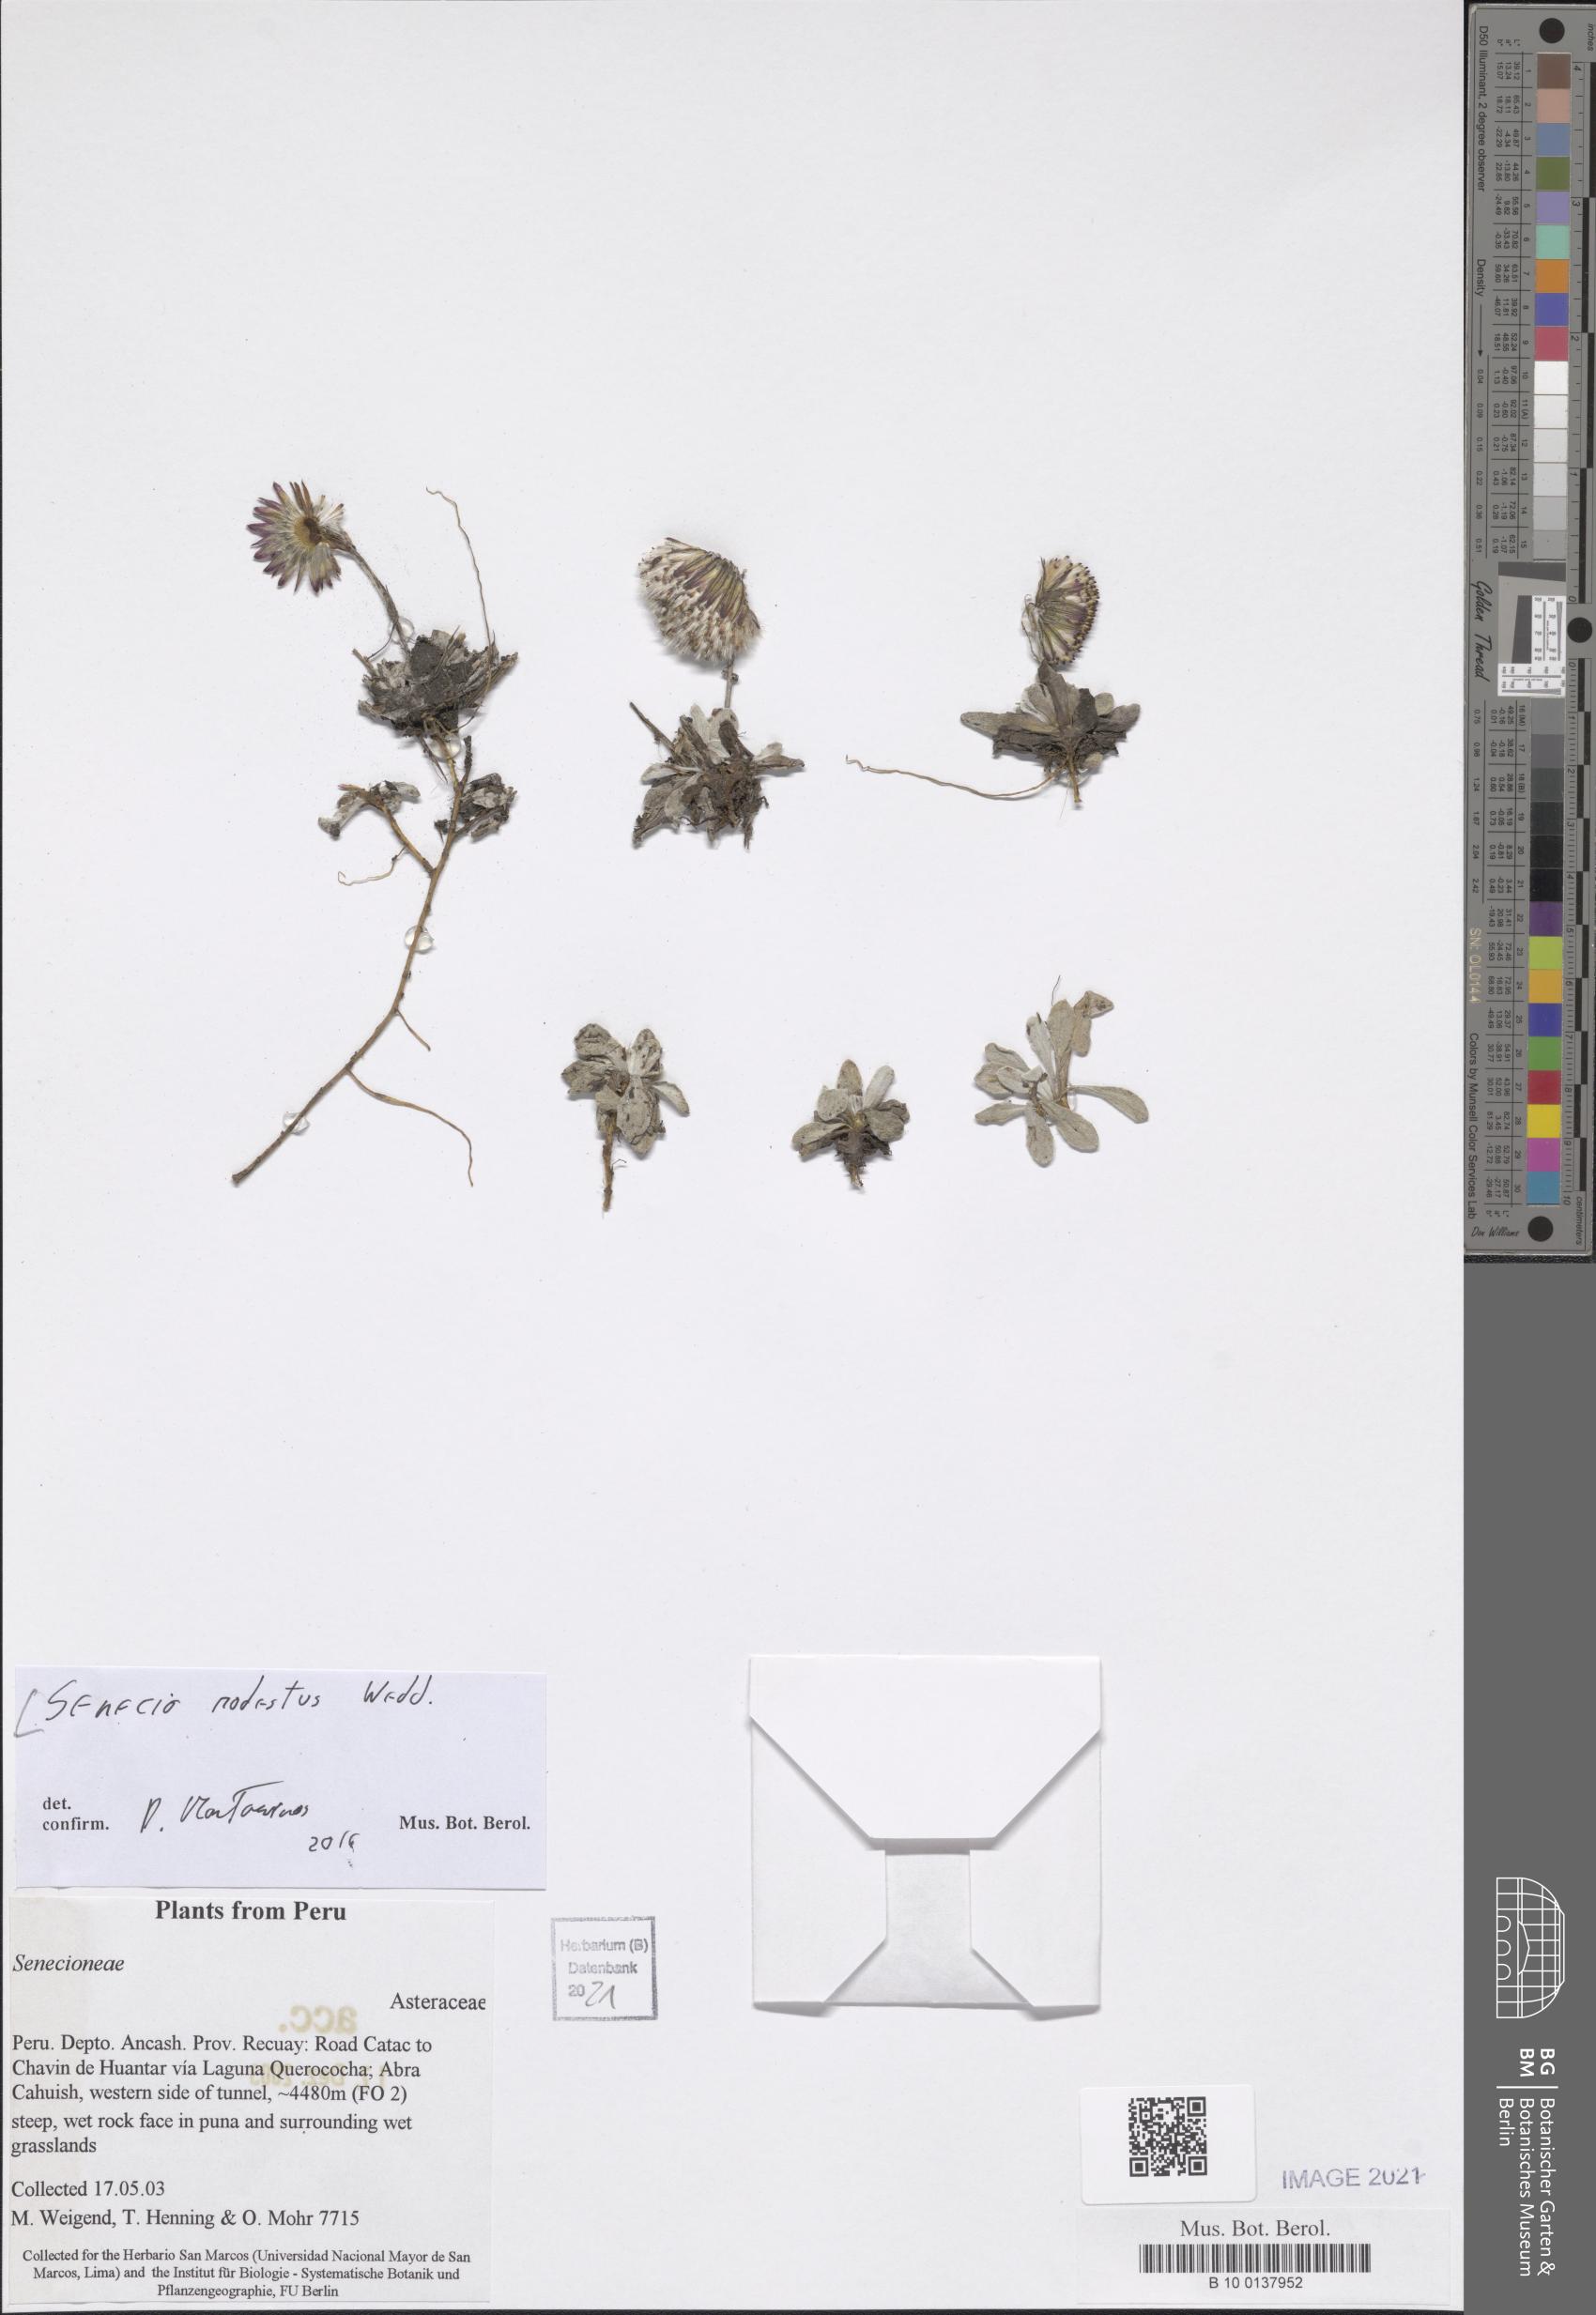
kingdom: Plantae
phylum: Tracheophyta
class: Magnoliopsida
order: Asterales
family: Asteraceae
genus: Culcitium
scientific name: Culcitium humile
